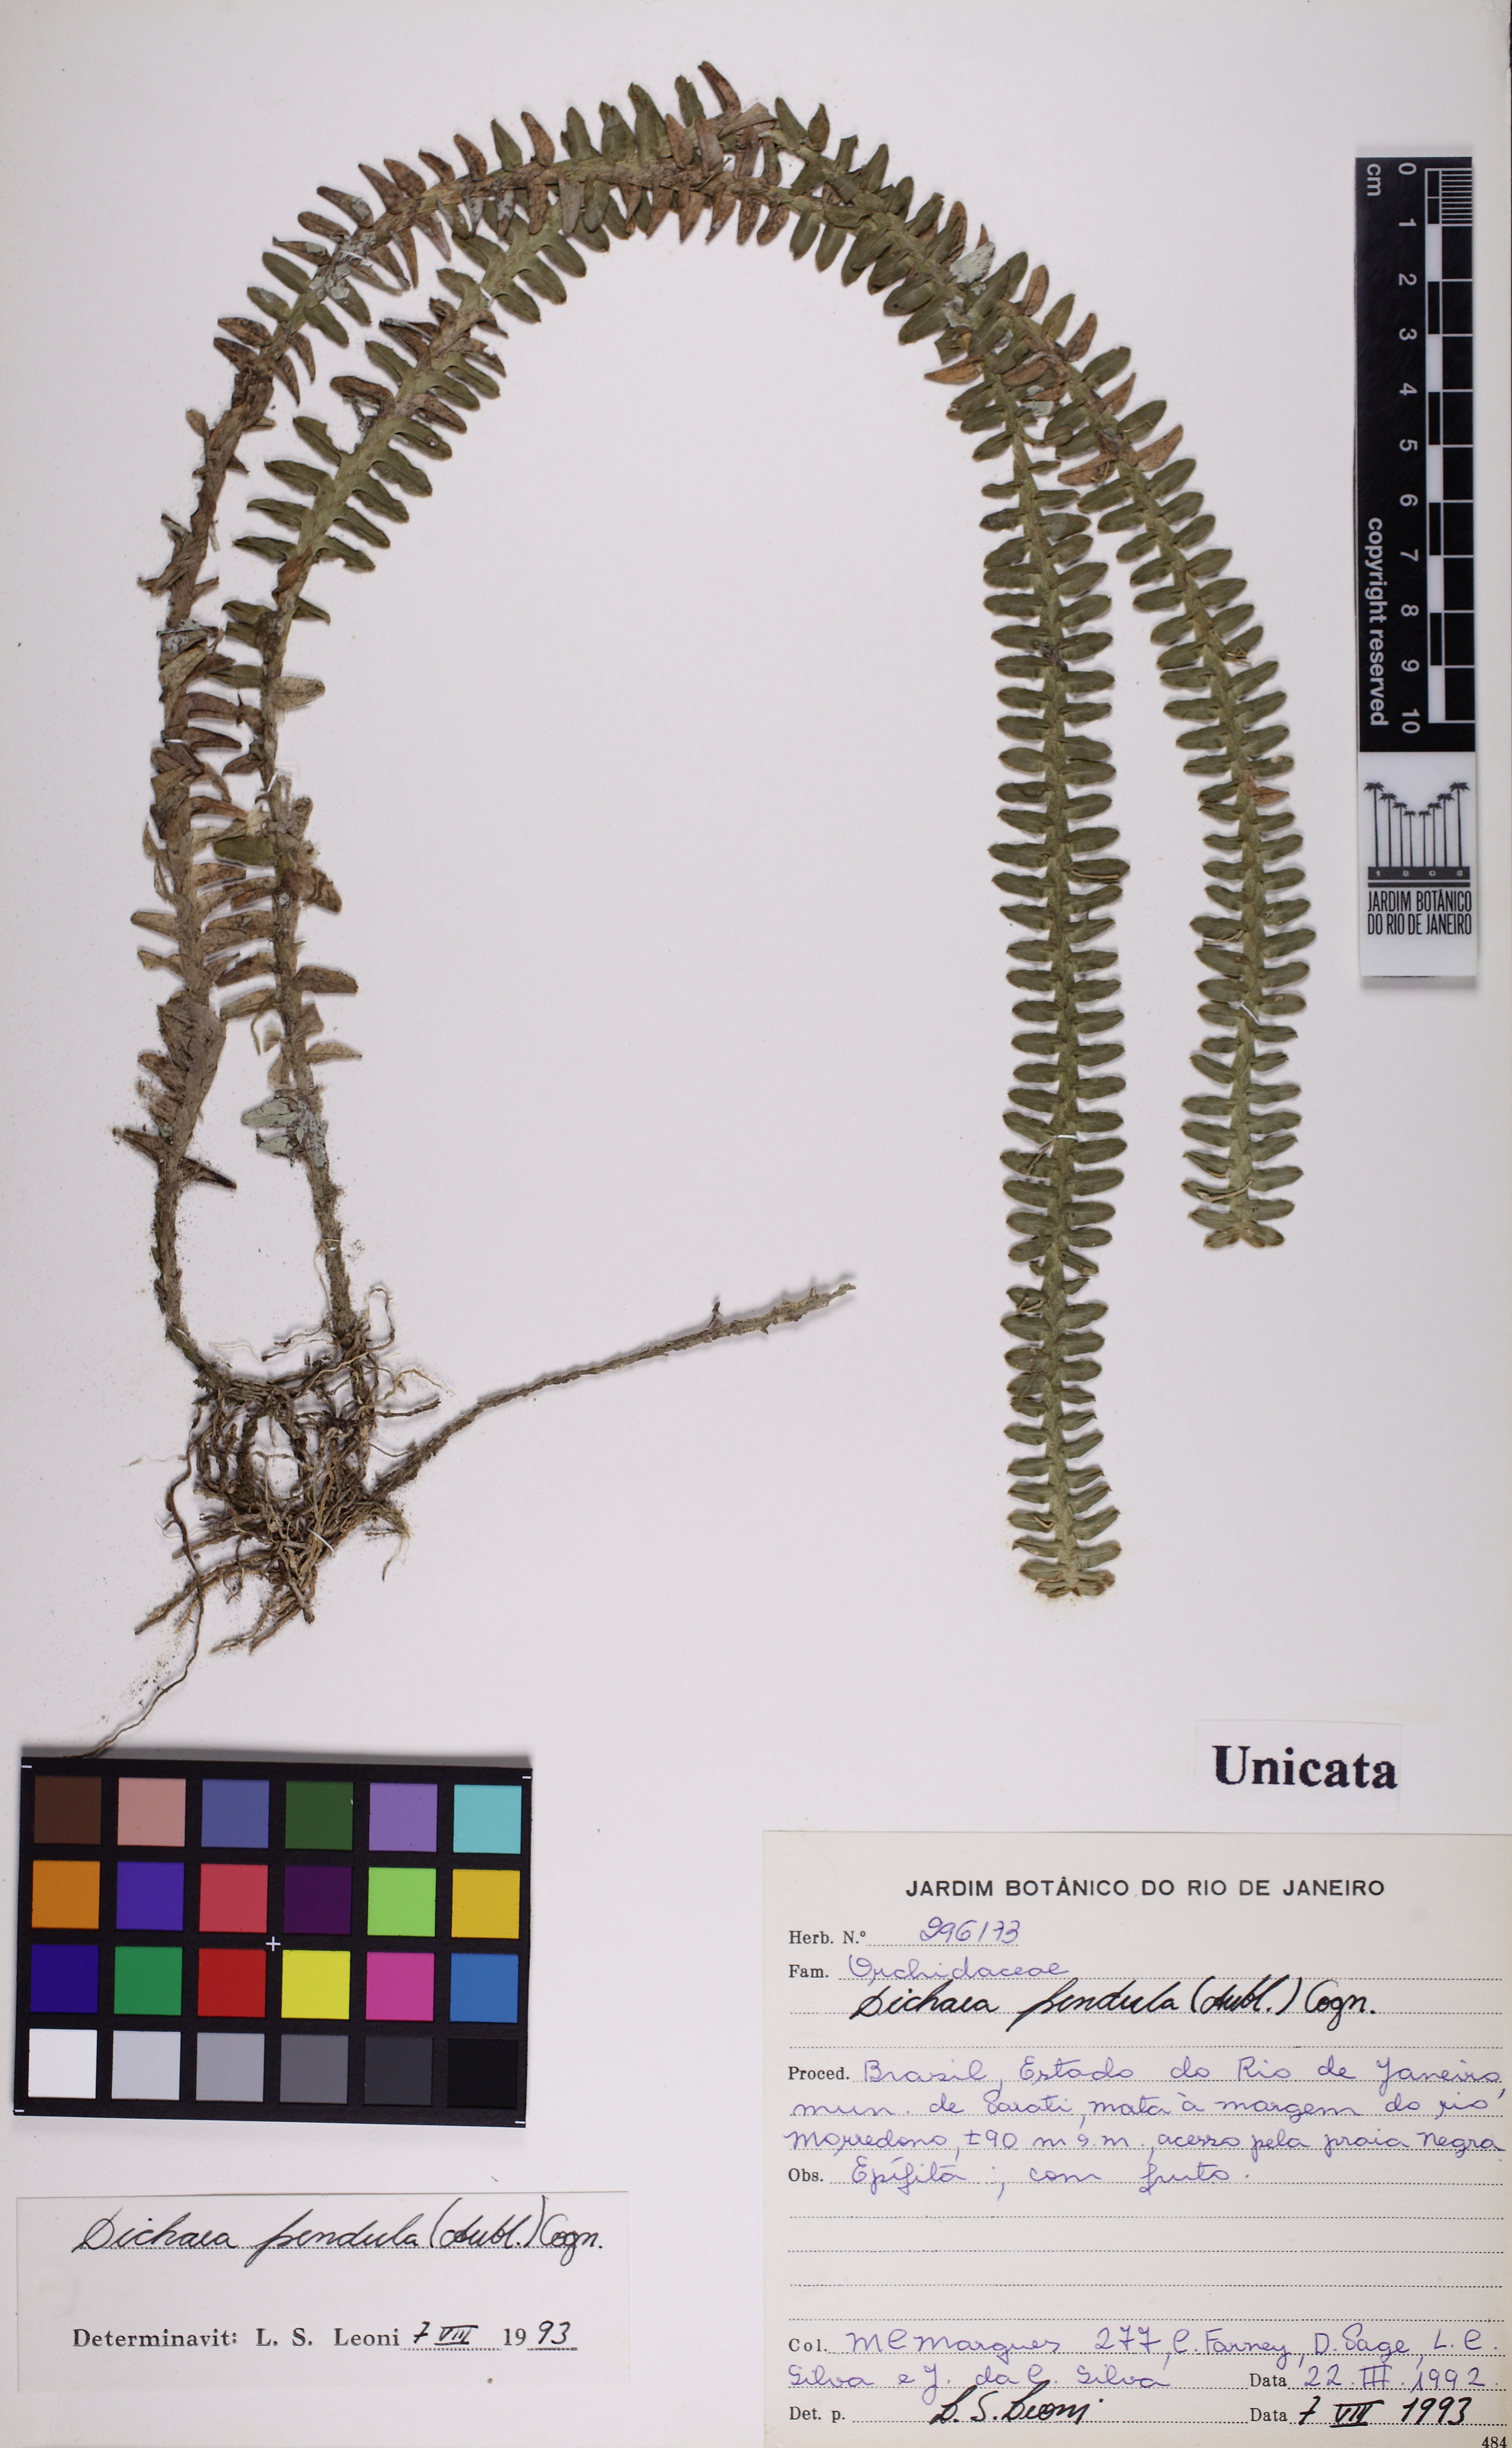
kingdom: Plantae
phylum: Tracheophyta
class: Liliopsida
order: Asparagales
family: Orchidaceae
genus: Dichaea
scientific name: Dichaea pendula
